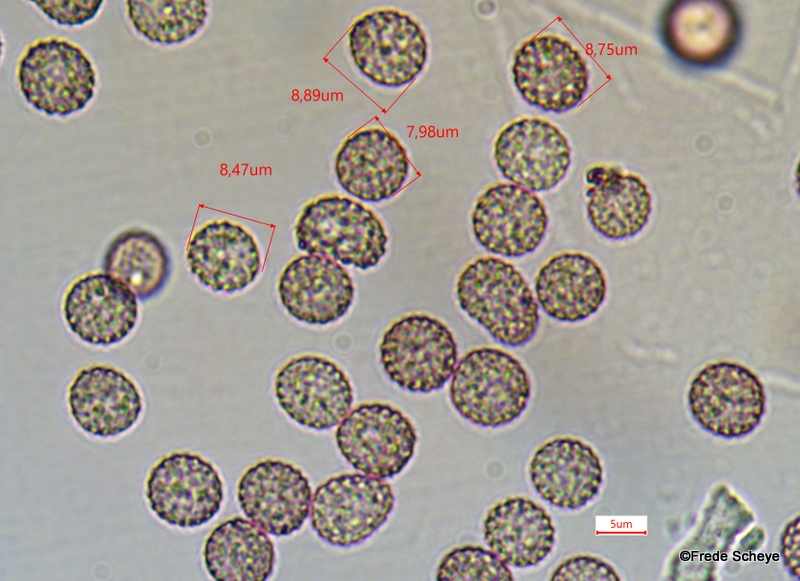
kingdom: Fungi
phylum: Basidiomycota
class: Microbotryomycetes
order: Microbotryales
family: Microbotryaceae
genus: Microbotryum
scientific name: Microbotryum stellariae
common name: fladstjerne-støvbladrust
